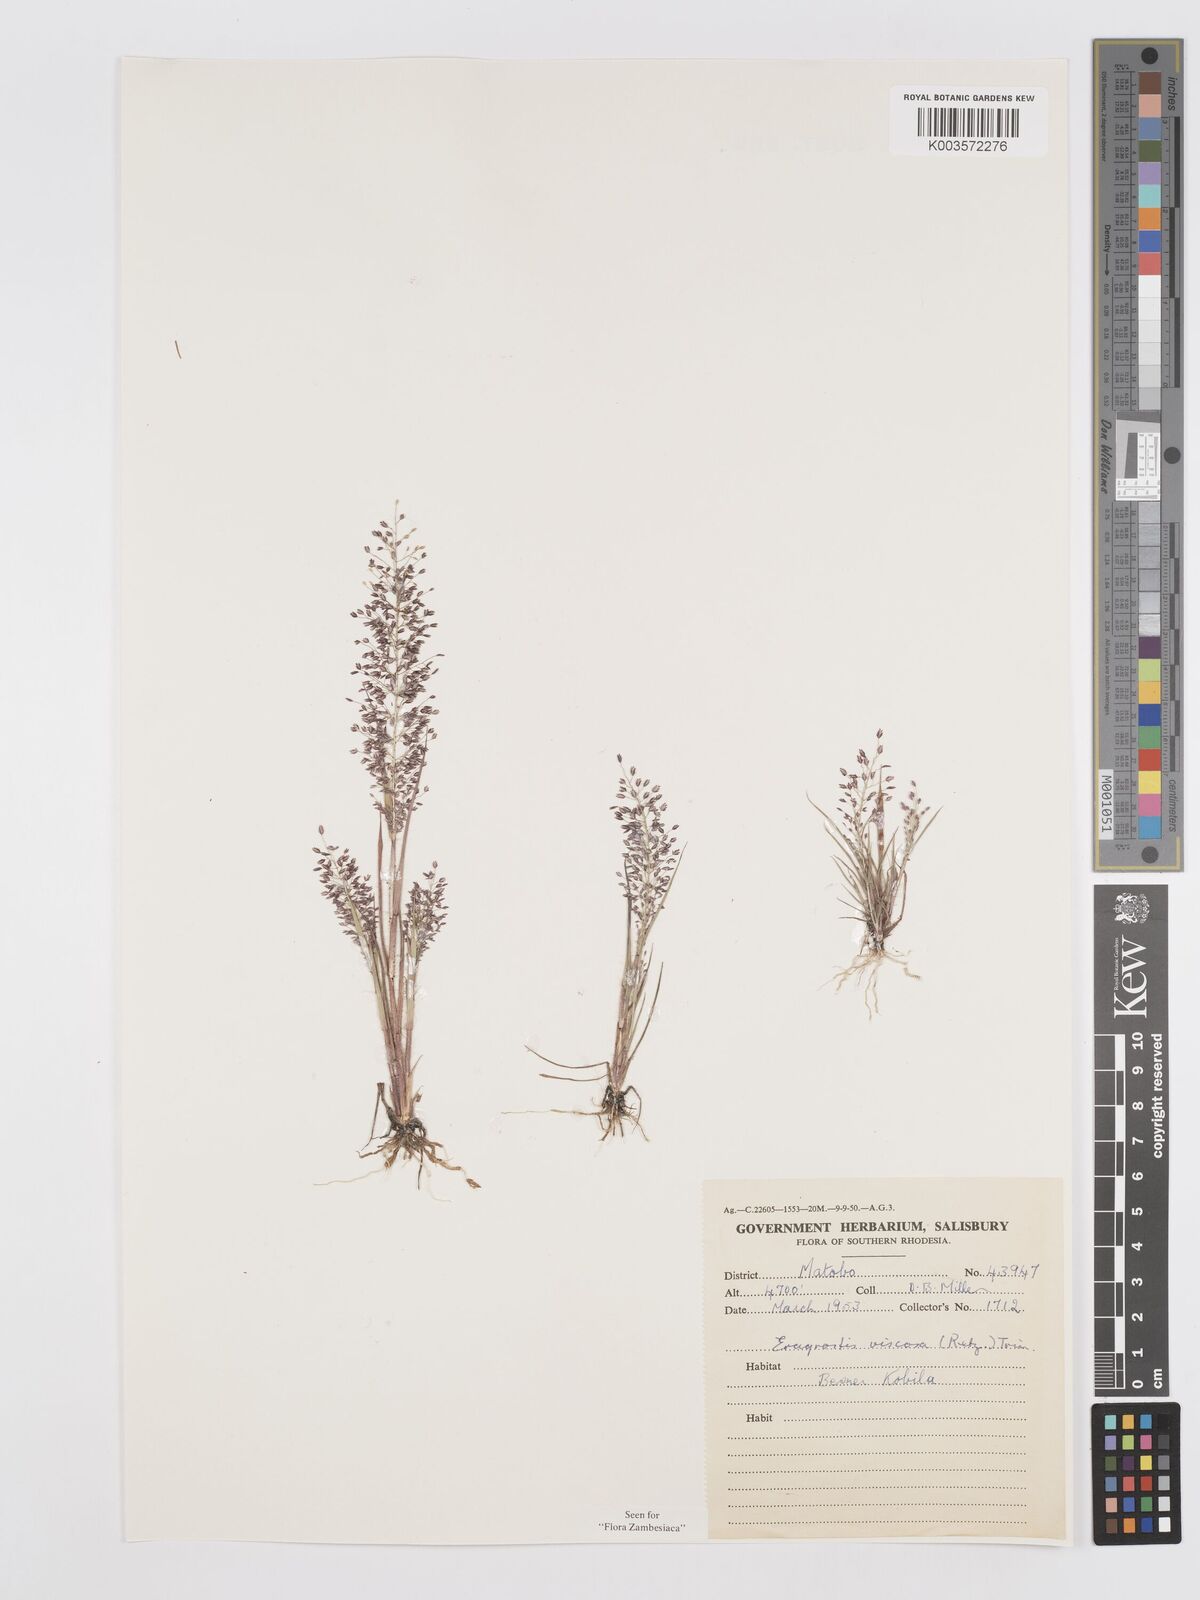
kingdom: Plantae
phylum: Tracheophyta
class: Liliopsida
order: Poales
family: Poaceae
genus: Eragrostis
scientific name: Eragrostis
